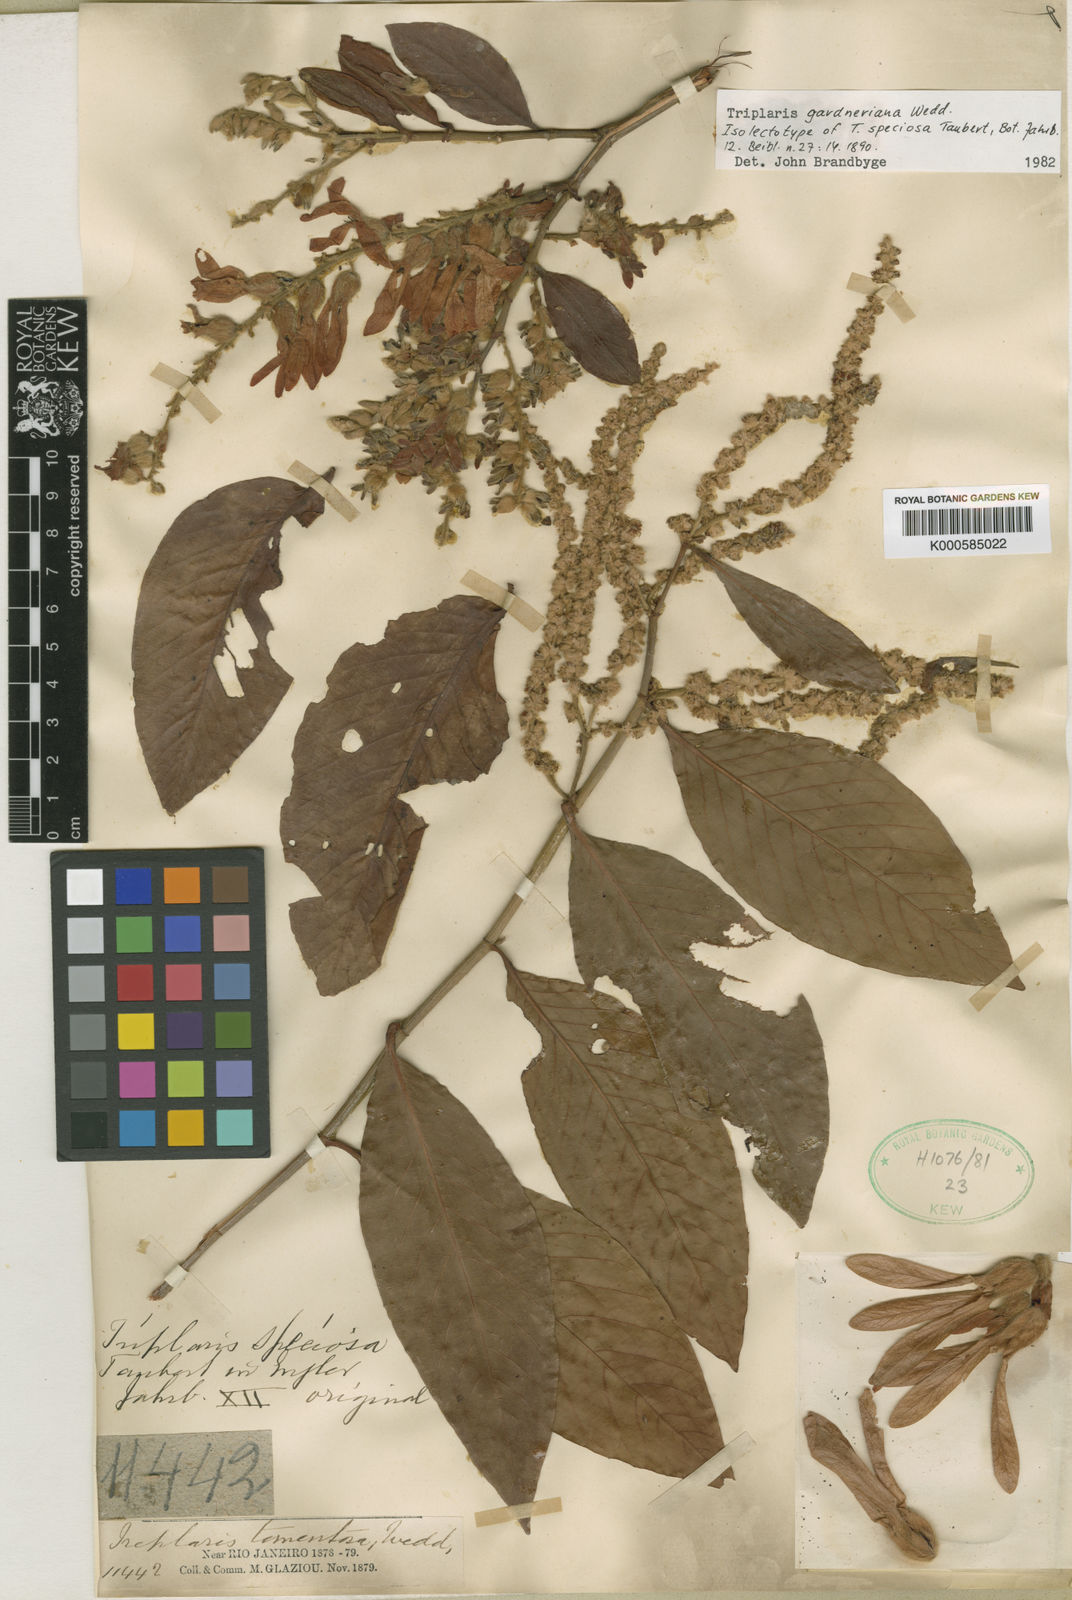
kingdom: Plantae
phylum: Tracheophyta
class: Magnoliopsida
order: Caryophyllales
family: Polygonaceae
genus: Triplaris
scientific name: Triplaris gardneriana
